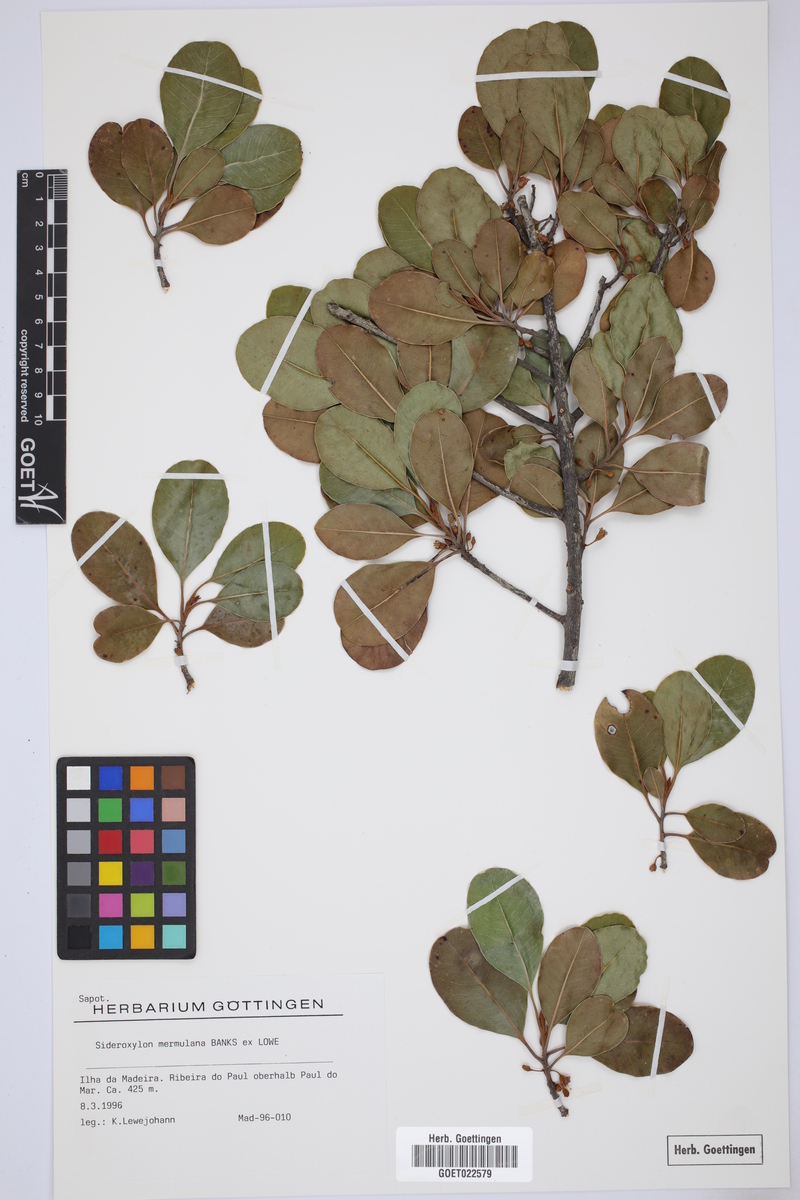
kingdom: Plantae
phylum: Tracheophyta
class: Magnoliopsida
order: Ericales
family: Sapotaceae
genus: Sideroxylon
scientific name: Sideroxylon mirmulano
